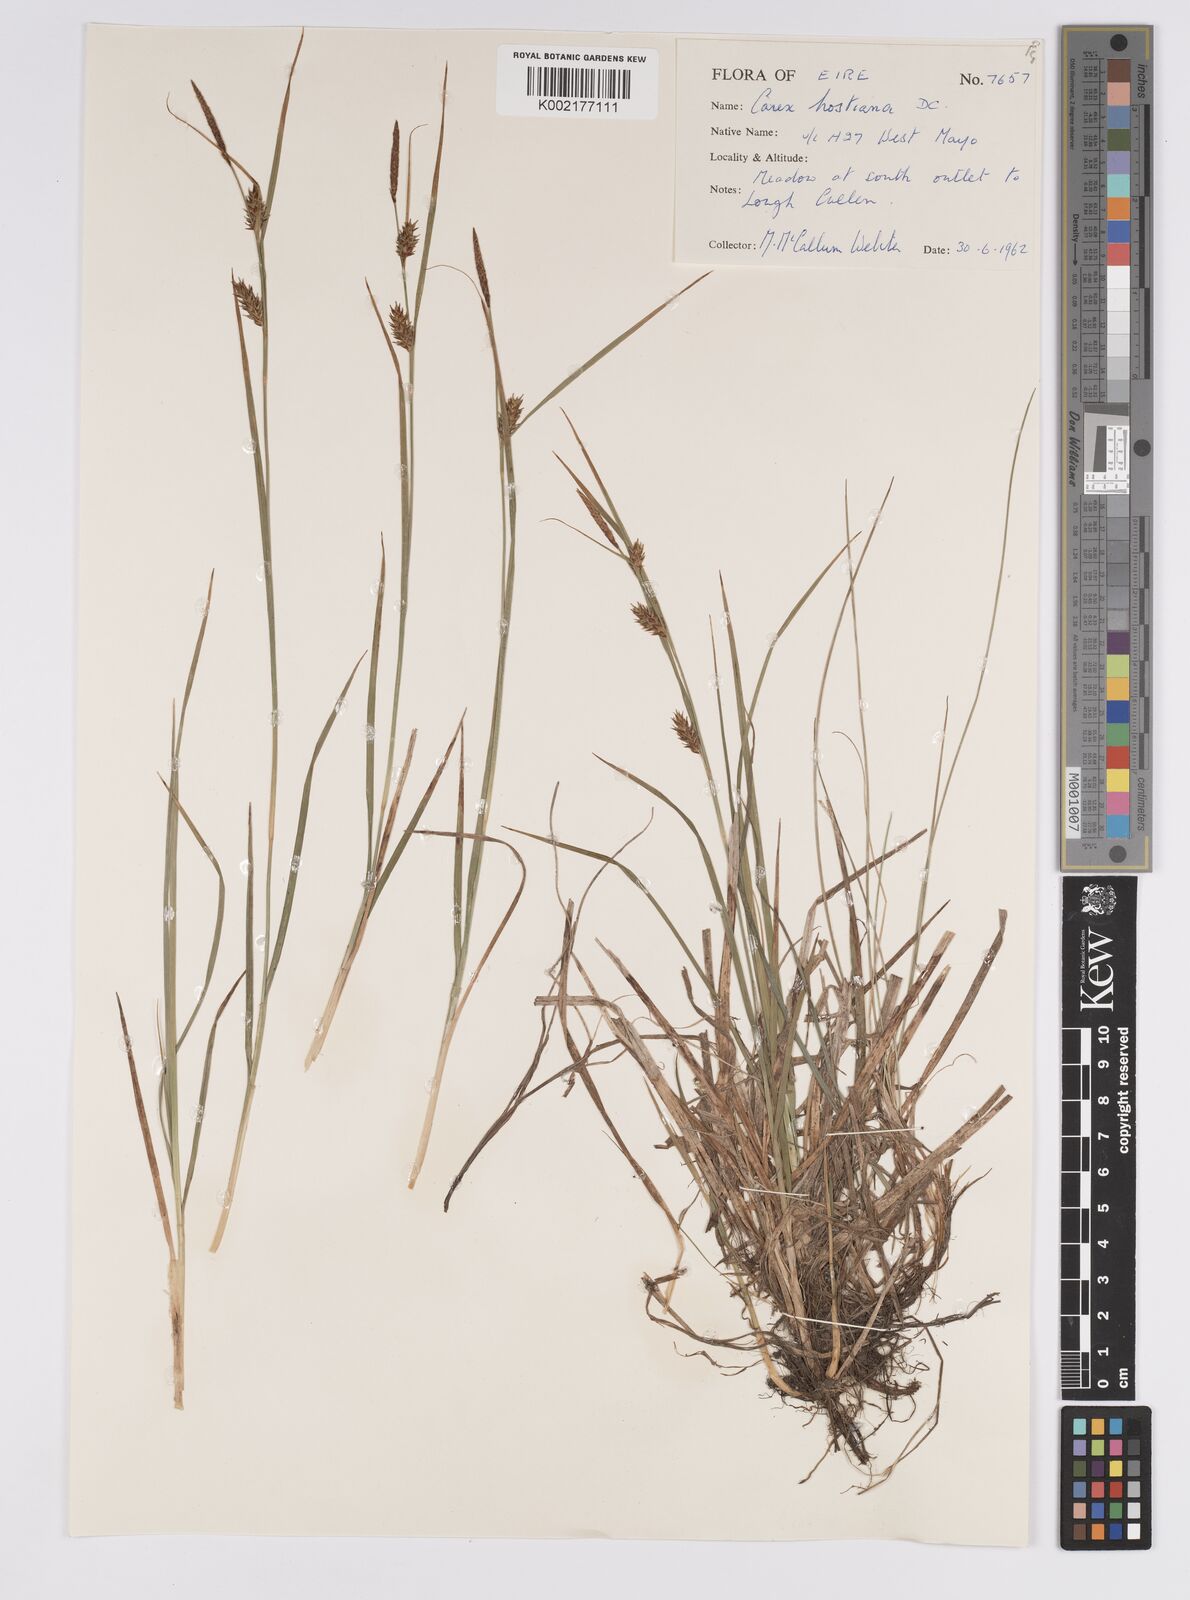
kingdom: Plantae
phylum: Tracheophyta
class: Liliopsida
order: Poales
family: Cyperaceae
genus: Carex
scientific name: Carex hostiana
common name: Tawny sedge
